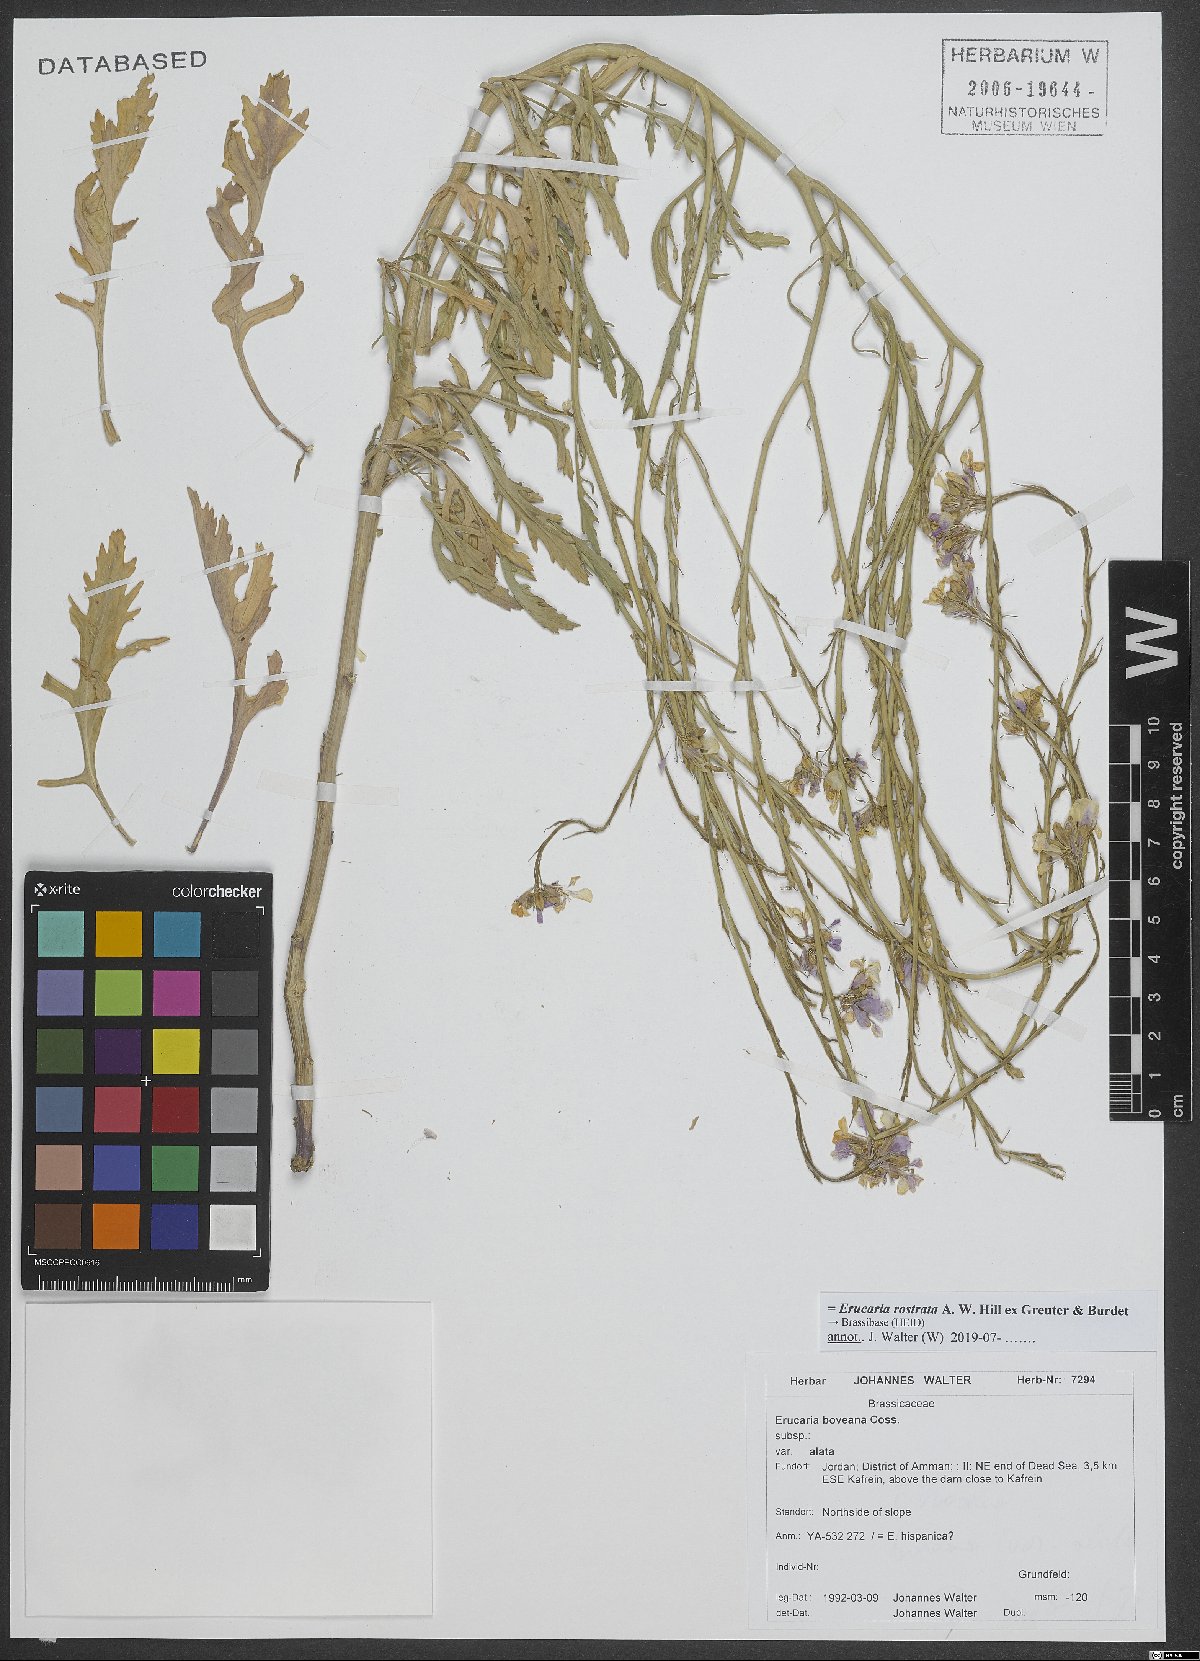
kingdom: Plantae
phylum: Tracheophyta
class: Magnoliopsida
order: Brassicales
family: Brassicaceae
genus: Erucaria
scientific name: Erucaria rostrata
